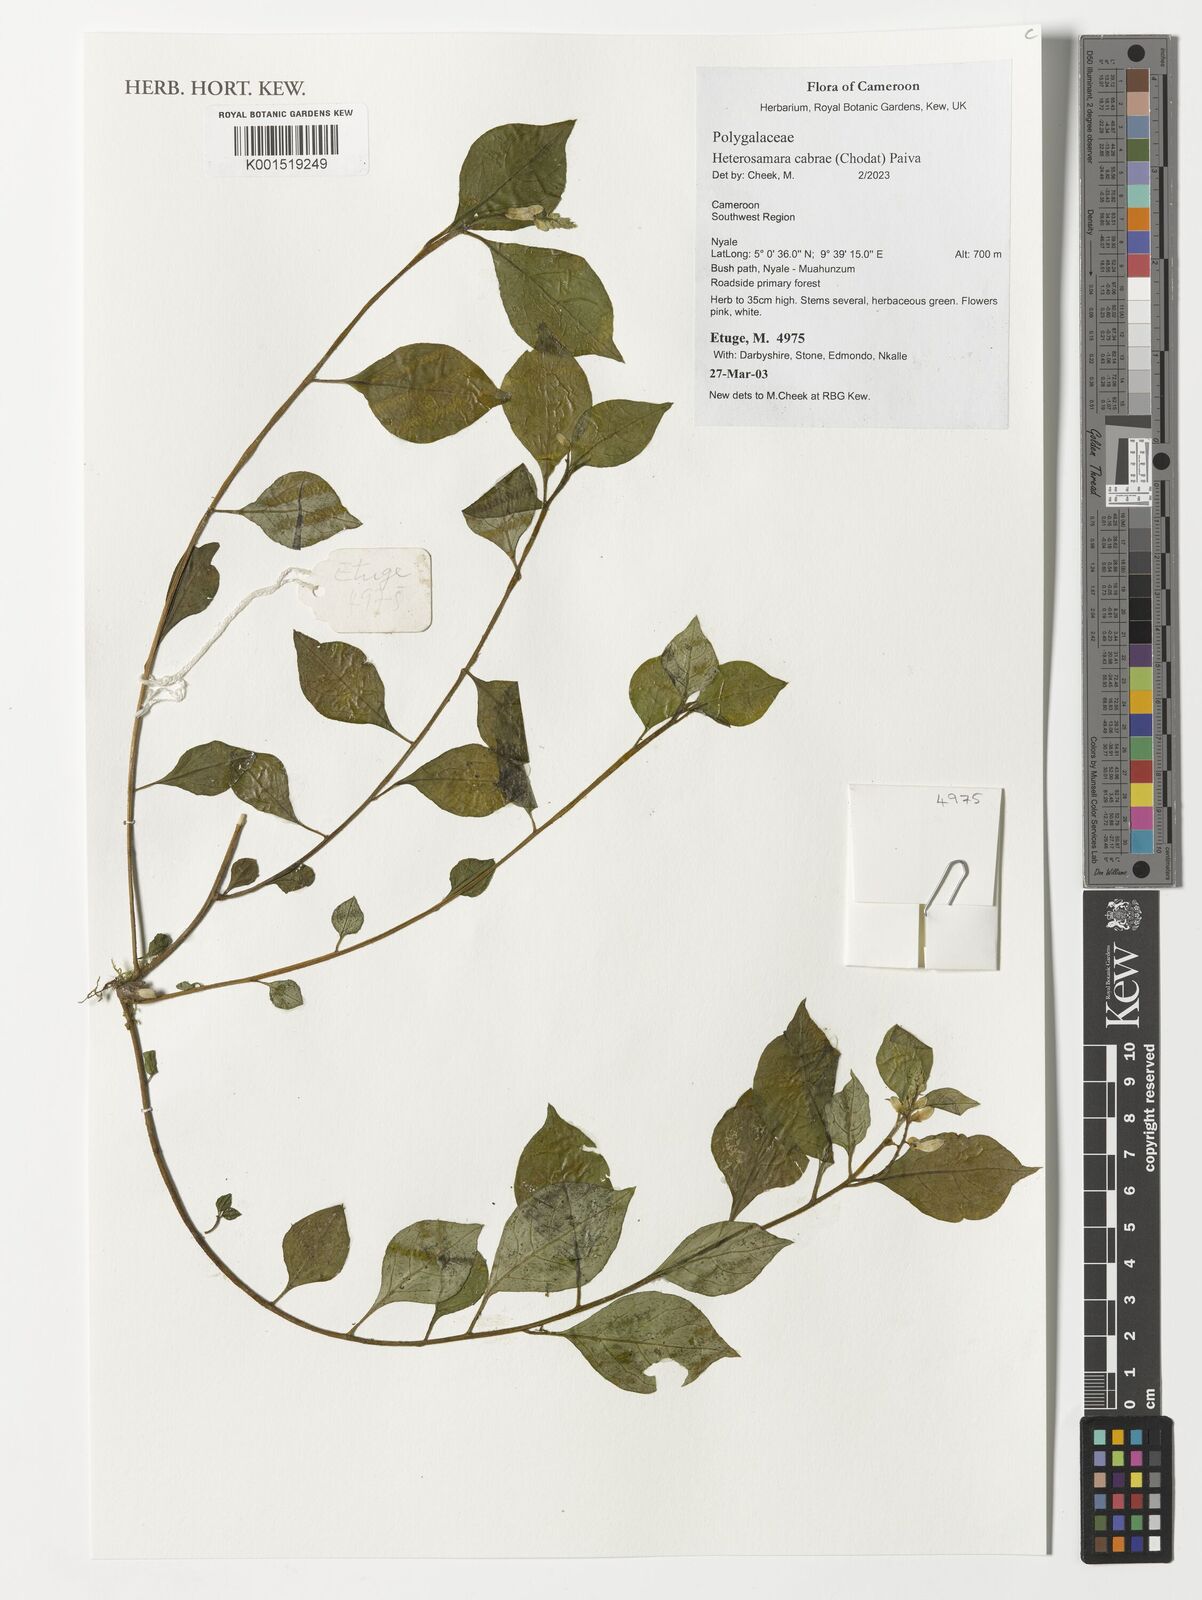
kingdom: Plantae
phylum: Tracheophyta
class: Magnoliopsida
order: Fabales
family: Polygalaceae
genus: Polygala
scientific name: Polygala cabrae
